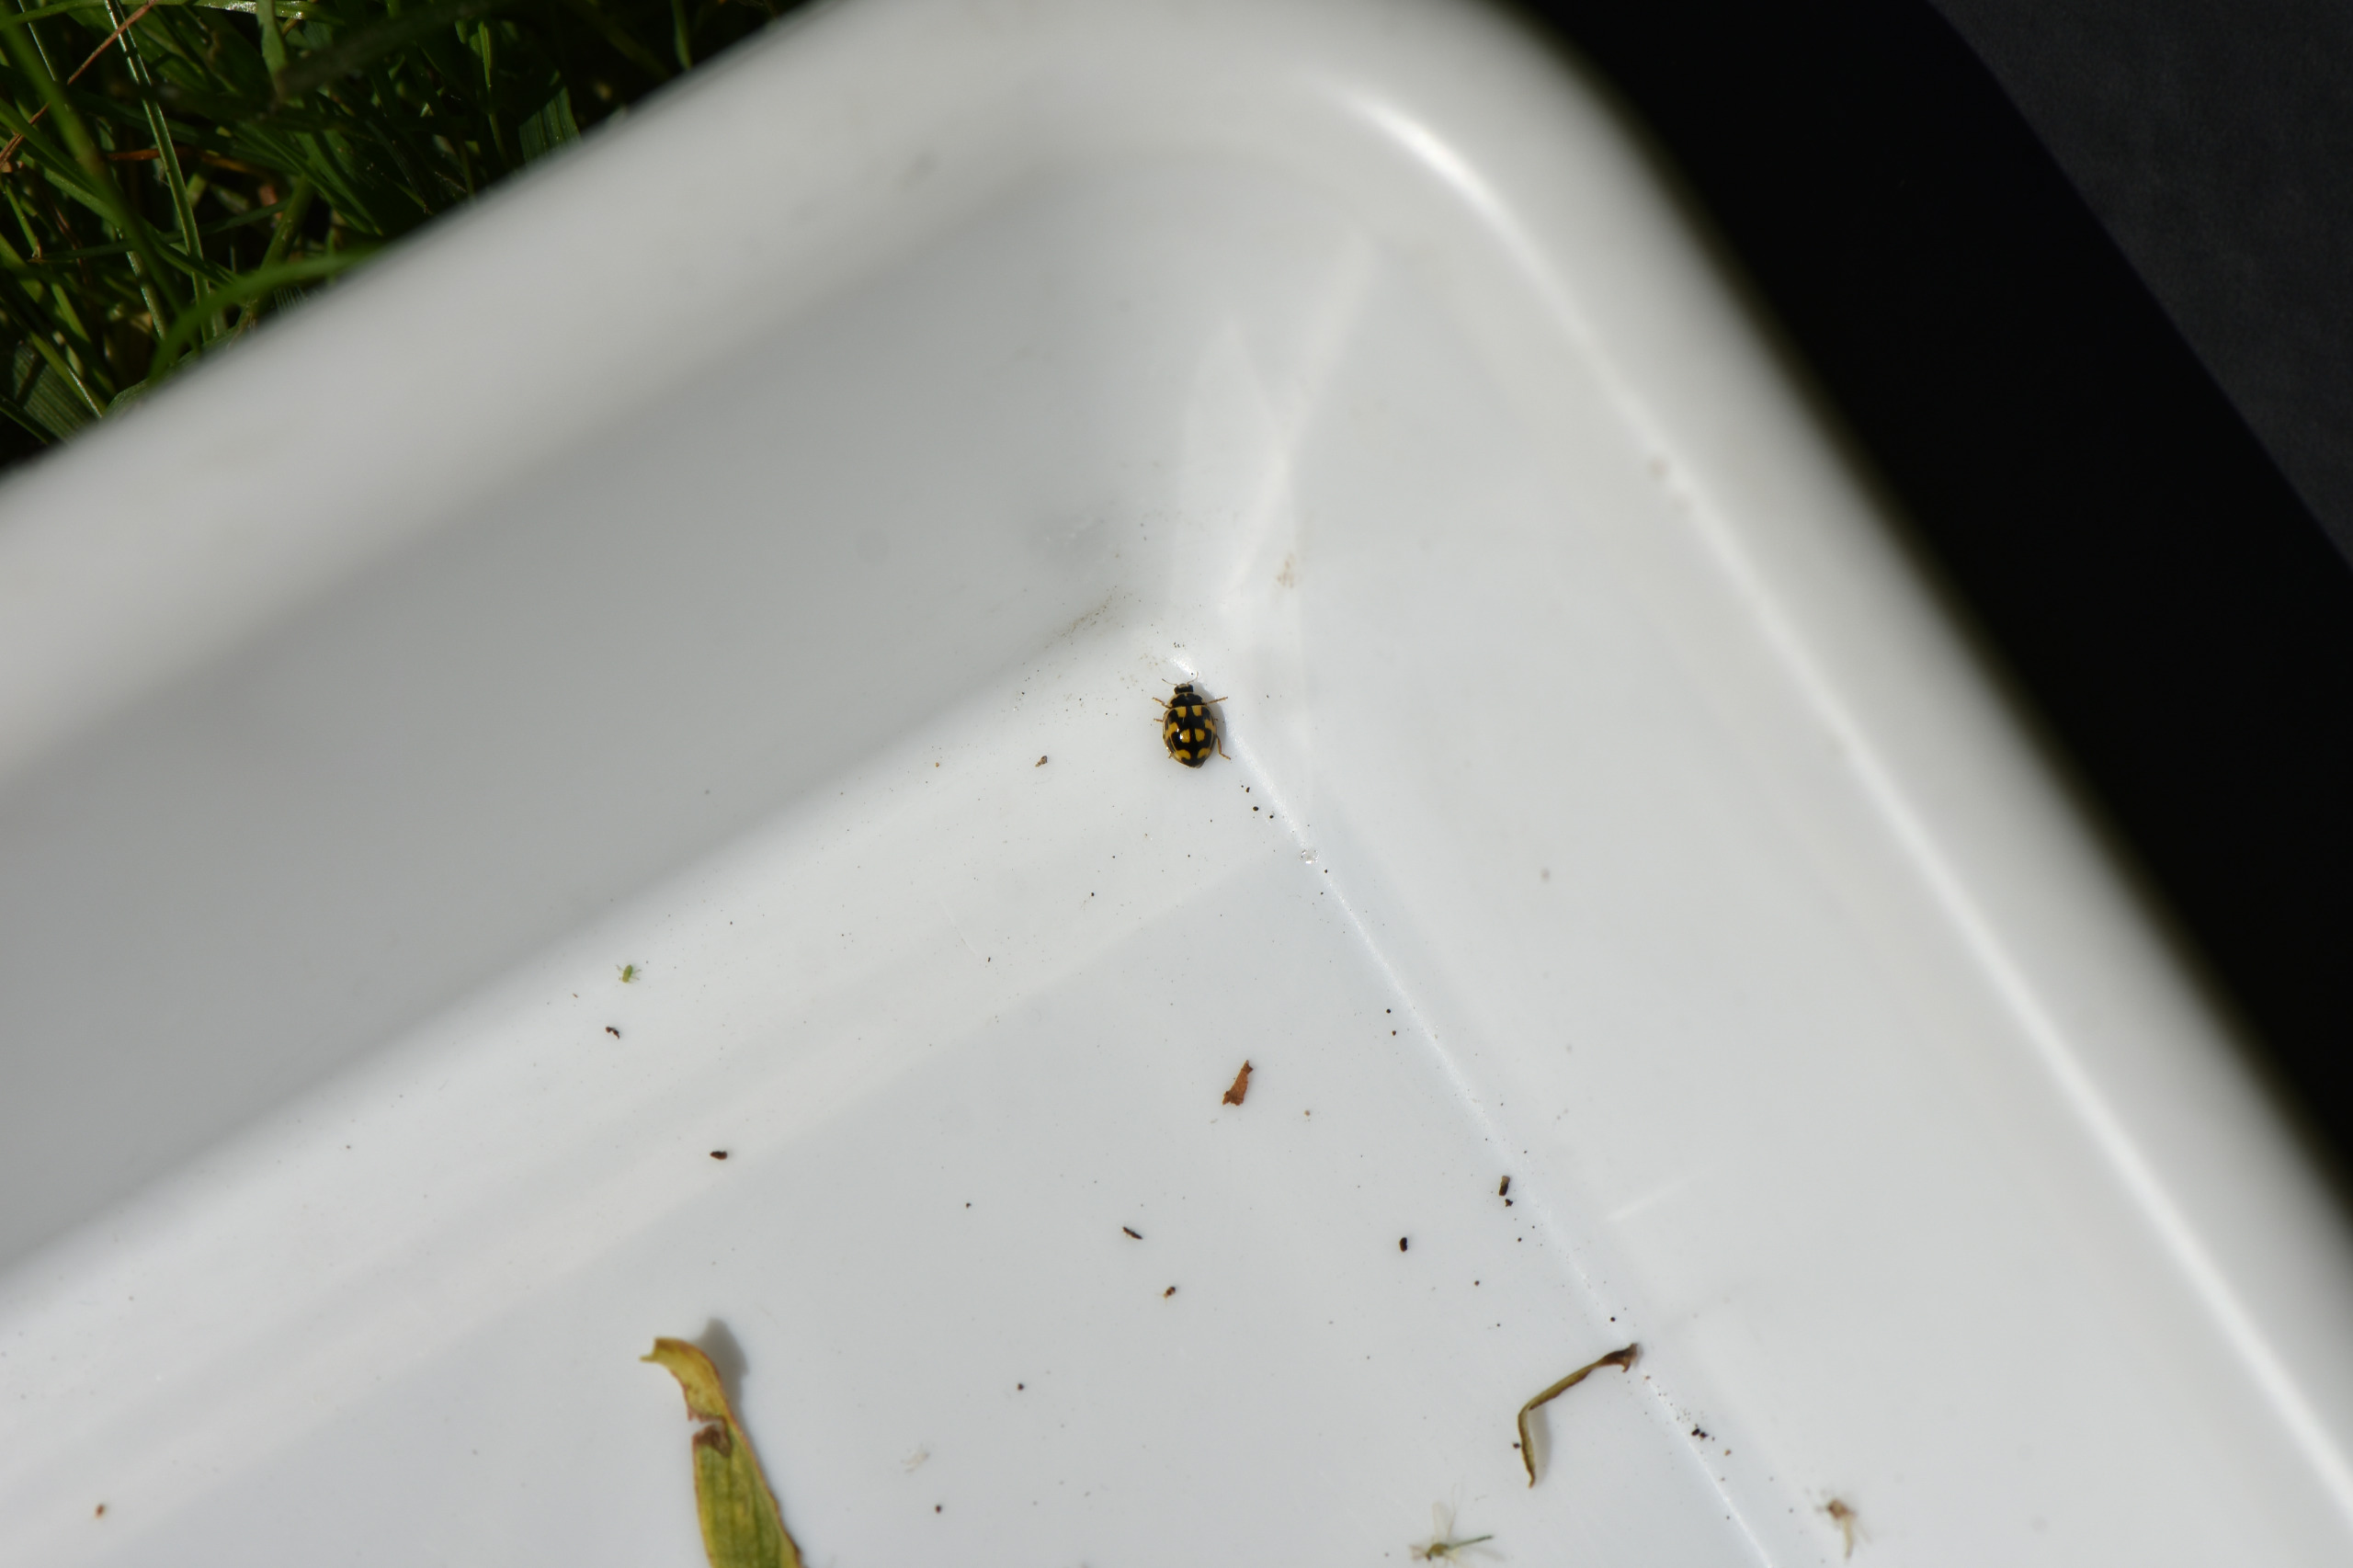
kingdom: Animalia
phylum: Arthropoda
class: Insecta
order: Coleoptera
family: Coccinellidae
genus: Propylaea
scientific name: Propylaea quatuordecimpunctata
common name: Skakbræt
